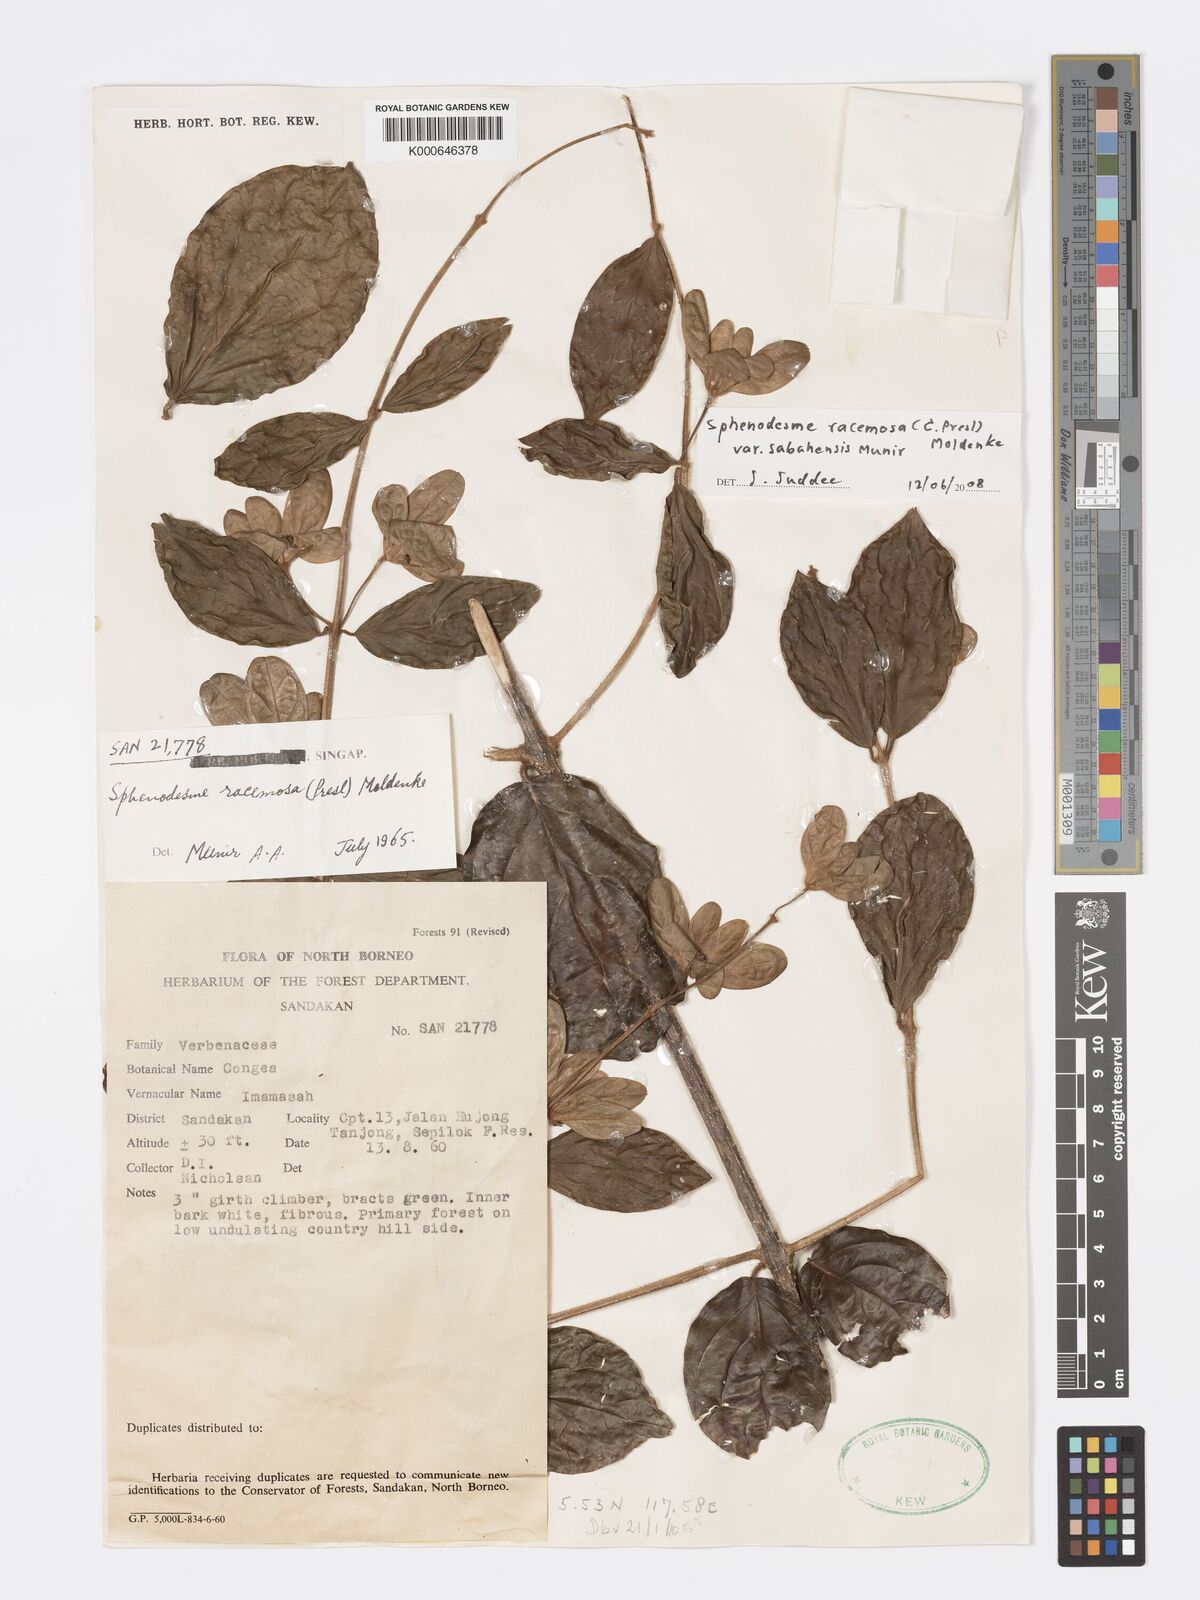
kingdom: Plantae
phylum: Tracheophyta
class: Magnoliopsida
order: Lamiales
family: Lamiaceae
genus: Sphenodesme
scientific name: Sphenodesme racemosa
